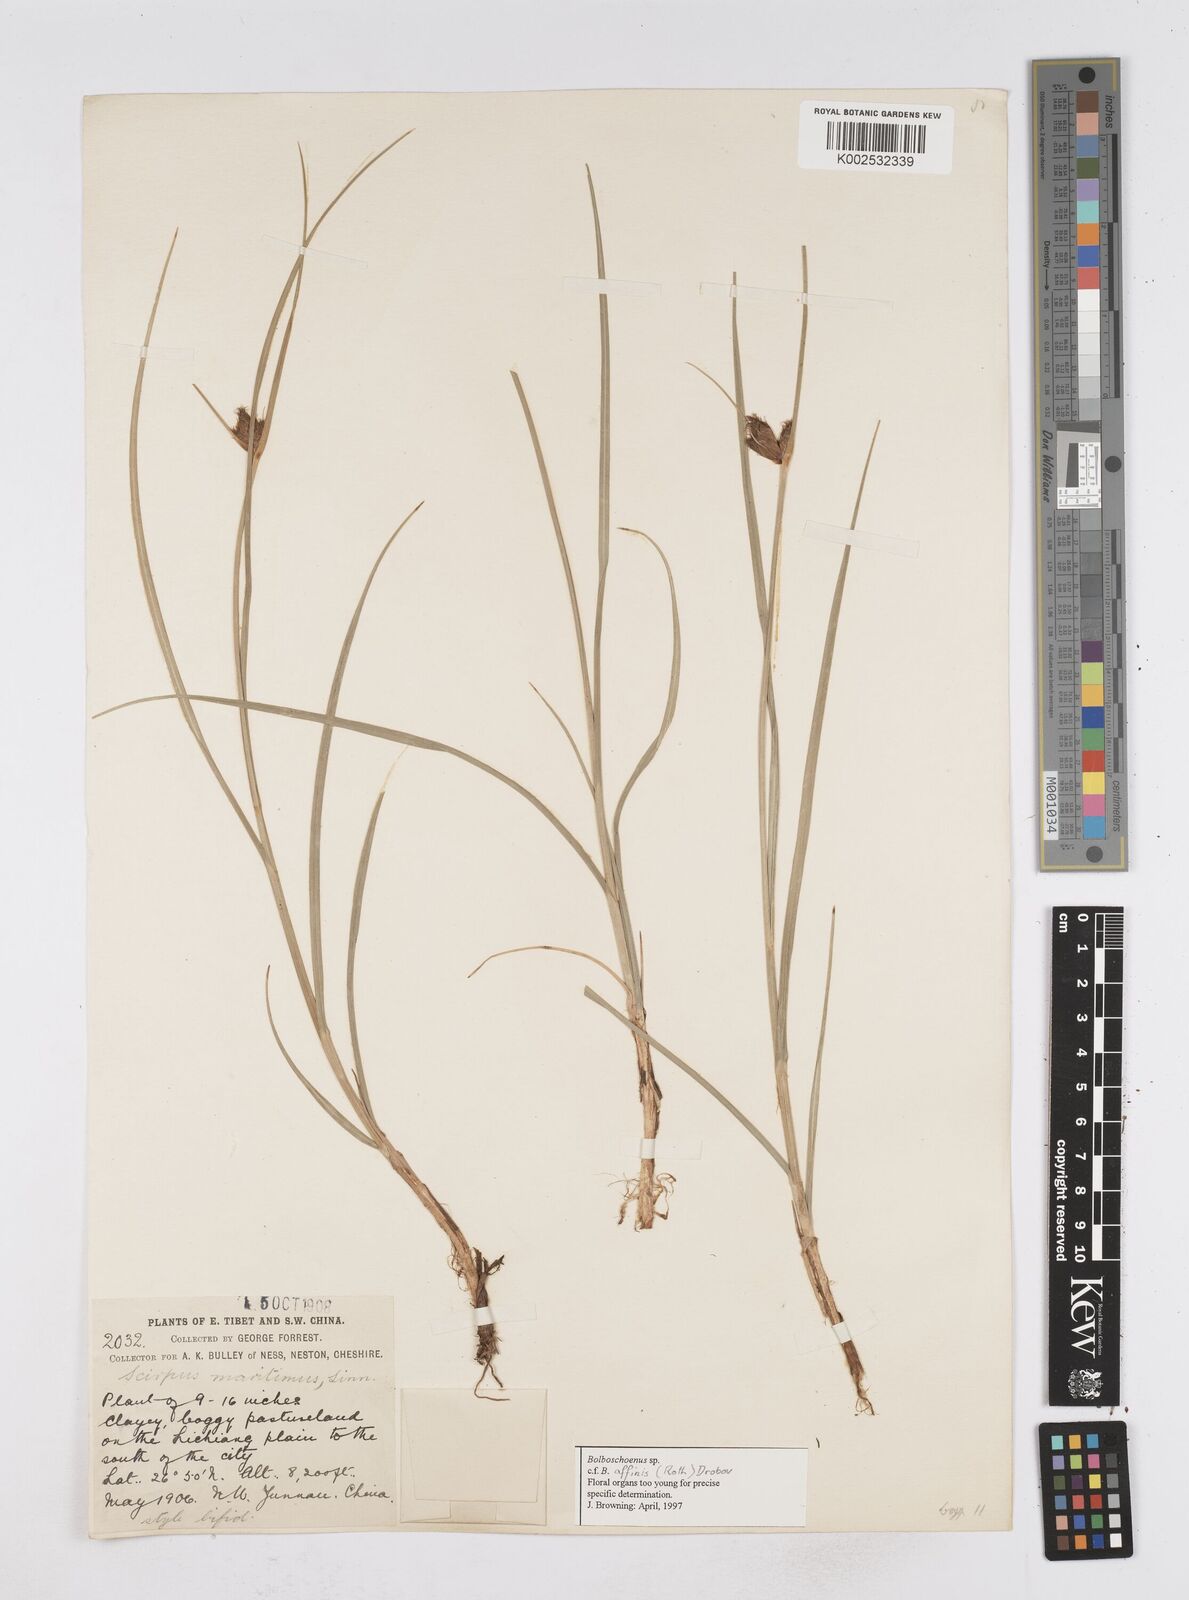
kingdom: Plantae
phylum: Tracheophyta
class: Liliopsida
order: Poales
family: Cyperaceae
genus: Bolboschoenus
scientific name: Bolboschoenus maritimus
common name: Sea club-rush
